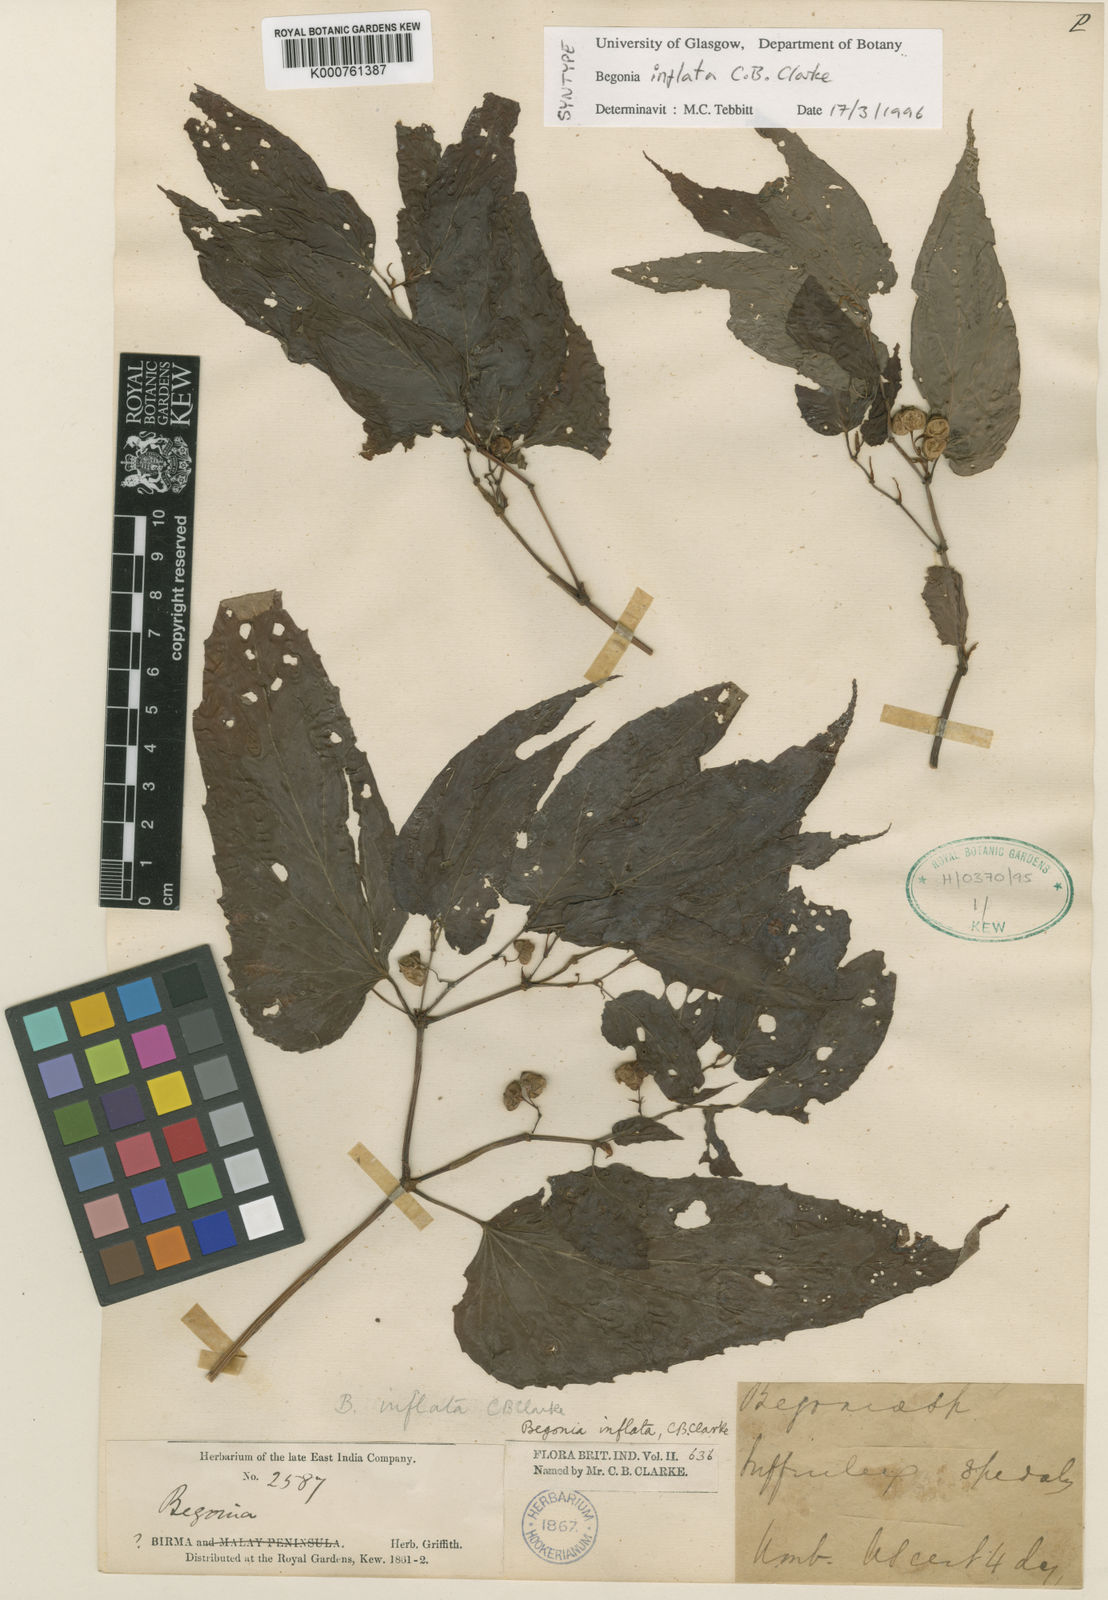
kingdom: Plantae
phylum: Tracheophyta
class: Magnoliopsida
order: Cucurbitales
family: Begoniaceae
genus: Begonia
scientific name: Begonia longifolia
